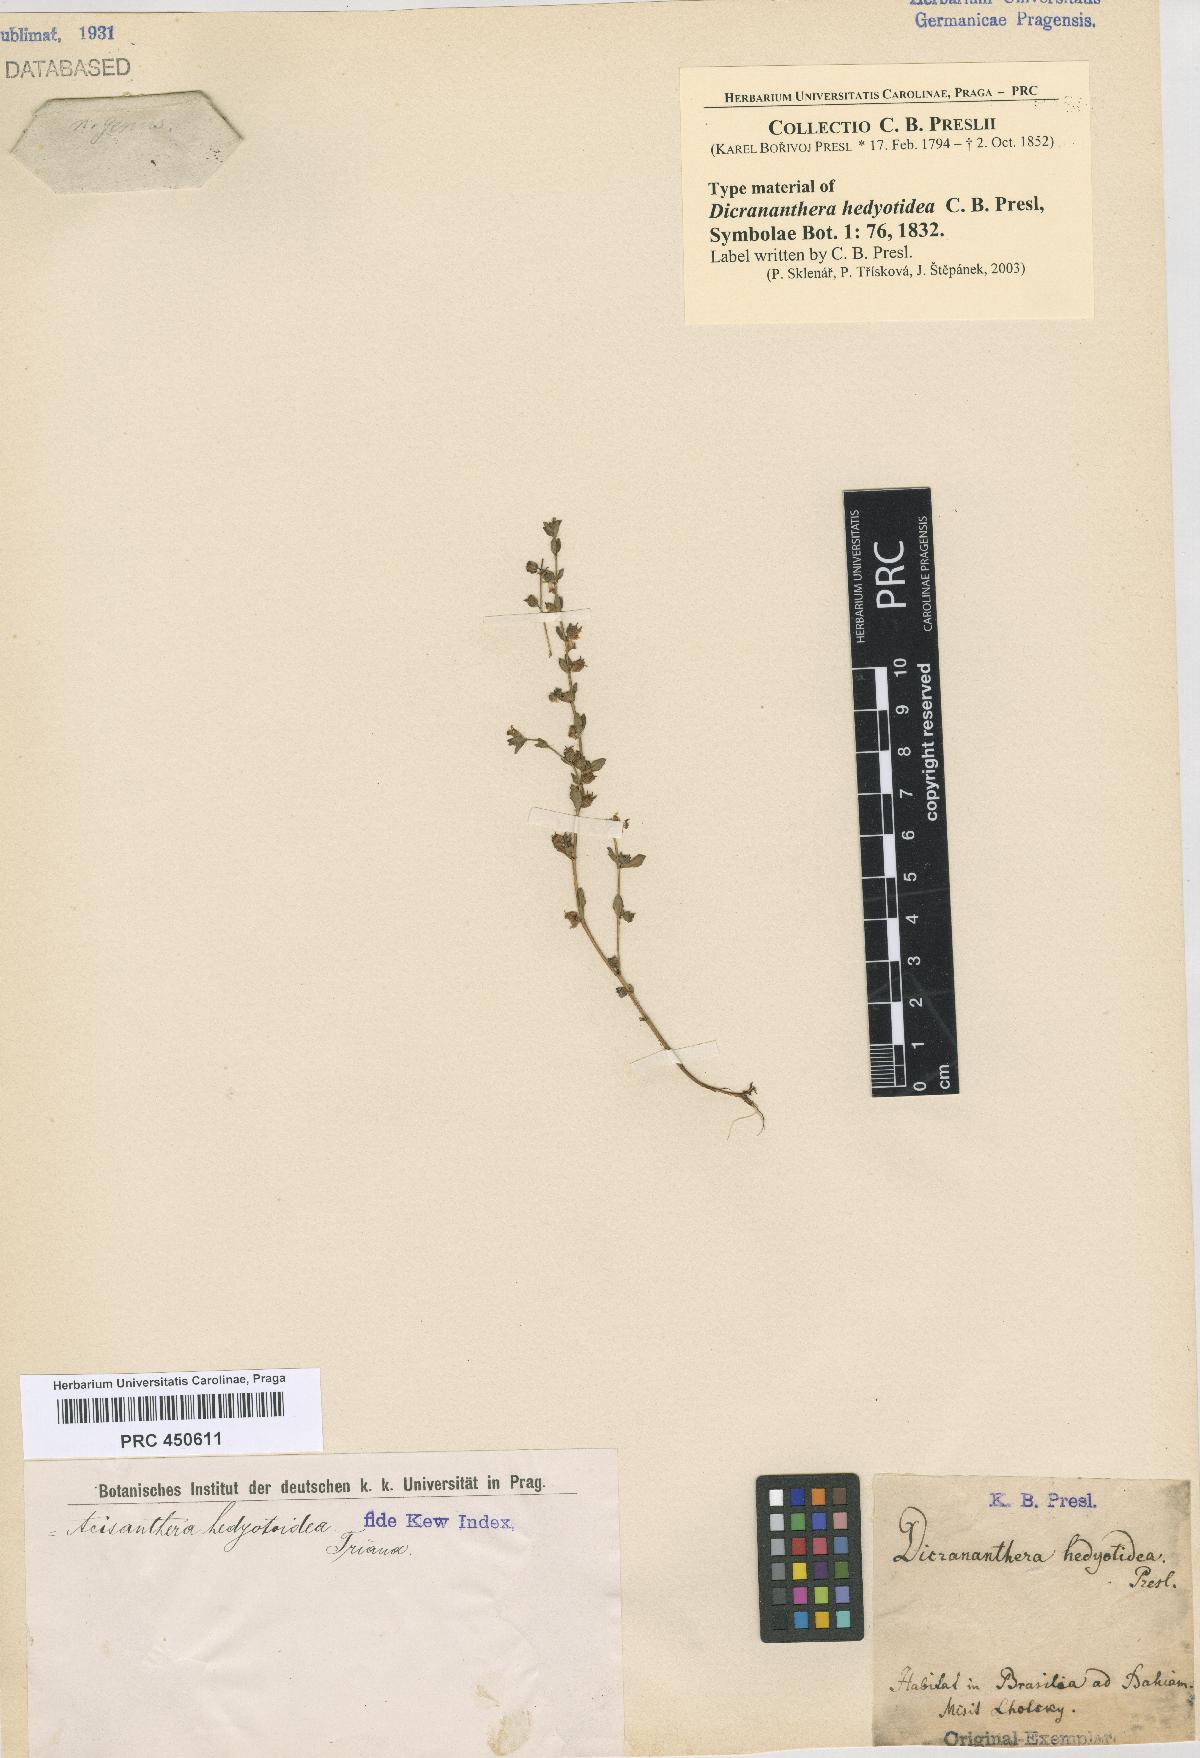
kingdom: Plantae
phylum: Tracheophyta
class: Magnoliopsida
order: Myrtales
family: Melastomataceae
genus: Dicrananthera
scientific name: Dicrananthera hedyotidea
